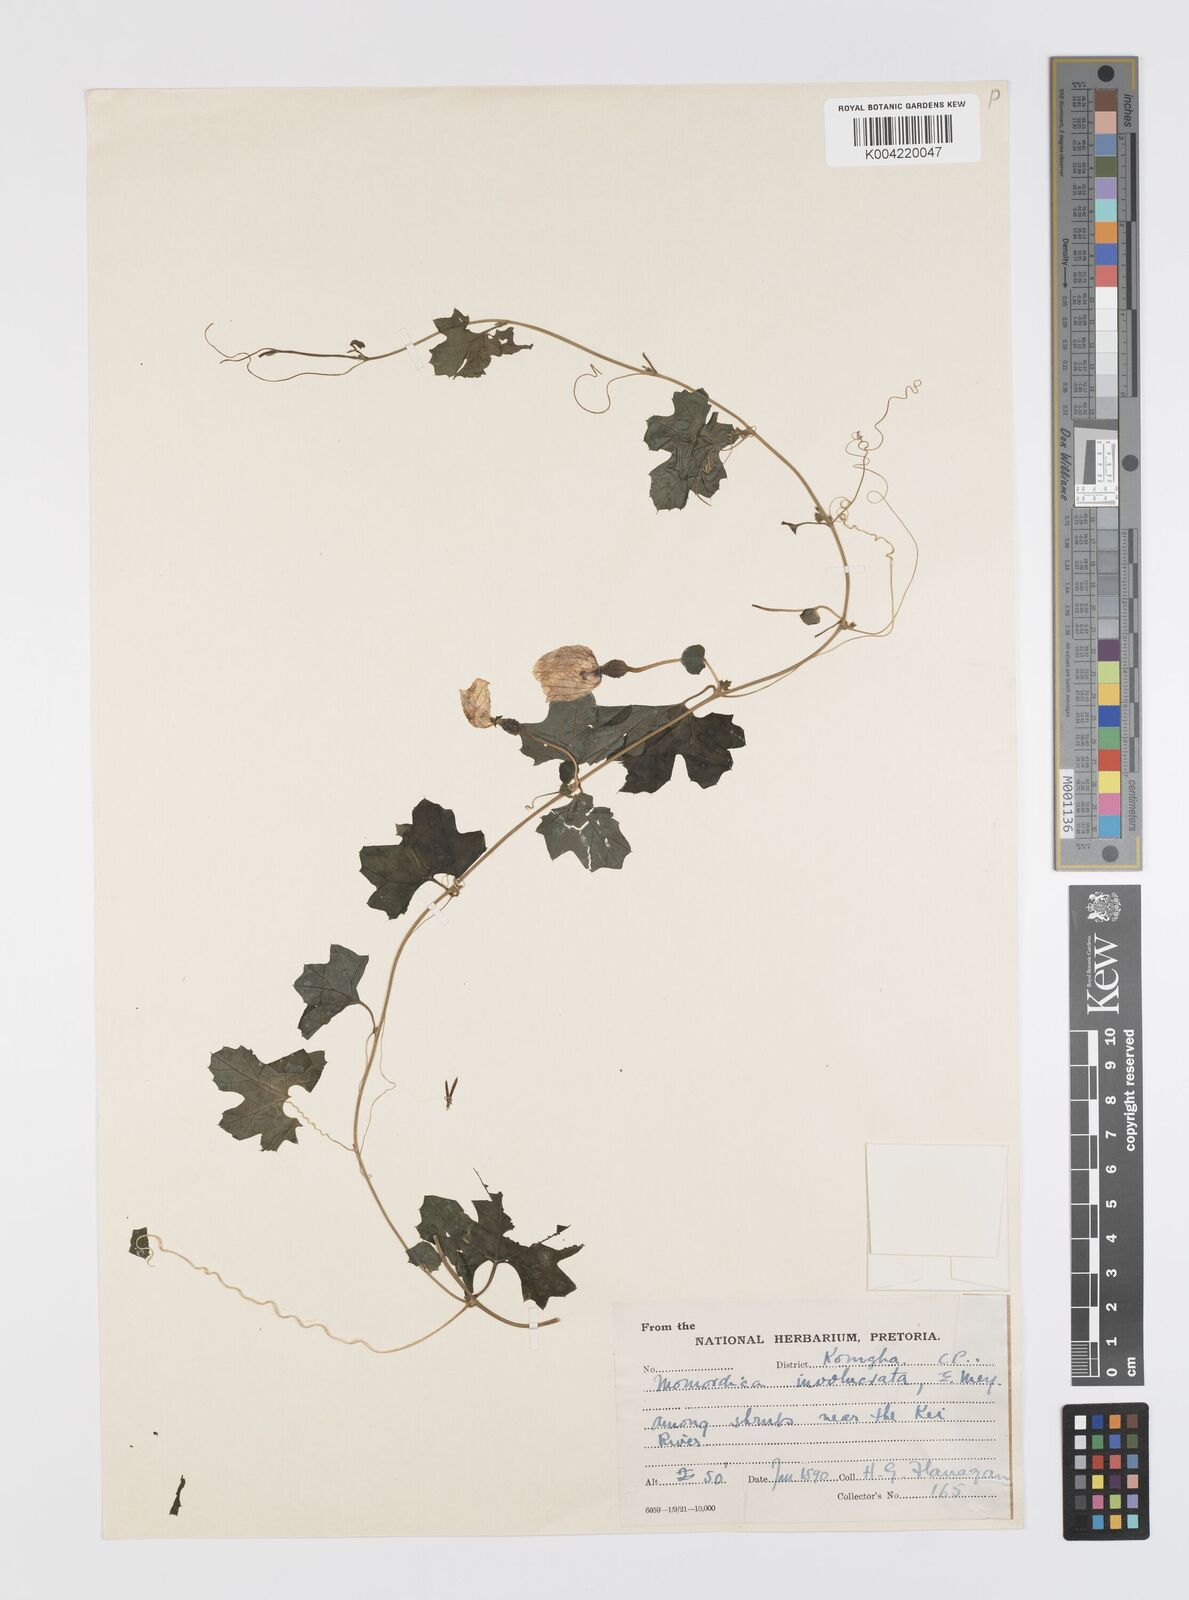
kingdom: Plantae
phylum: Tracheophyta
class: Magnoliopsida
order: Cucurbitales
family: Cucurbitaceae
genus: Momordica
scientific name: Momordica balsamina
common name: Southern balsampear
